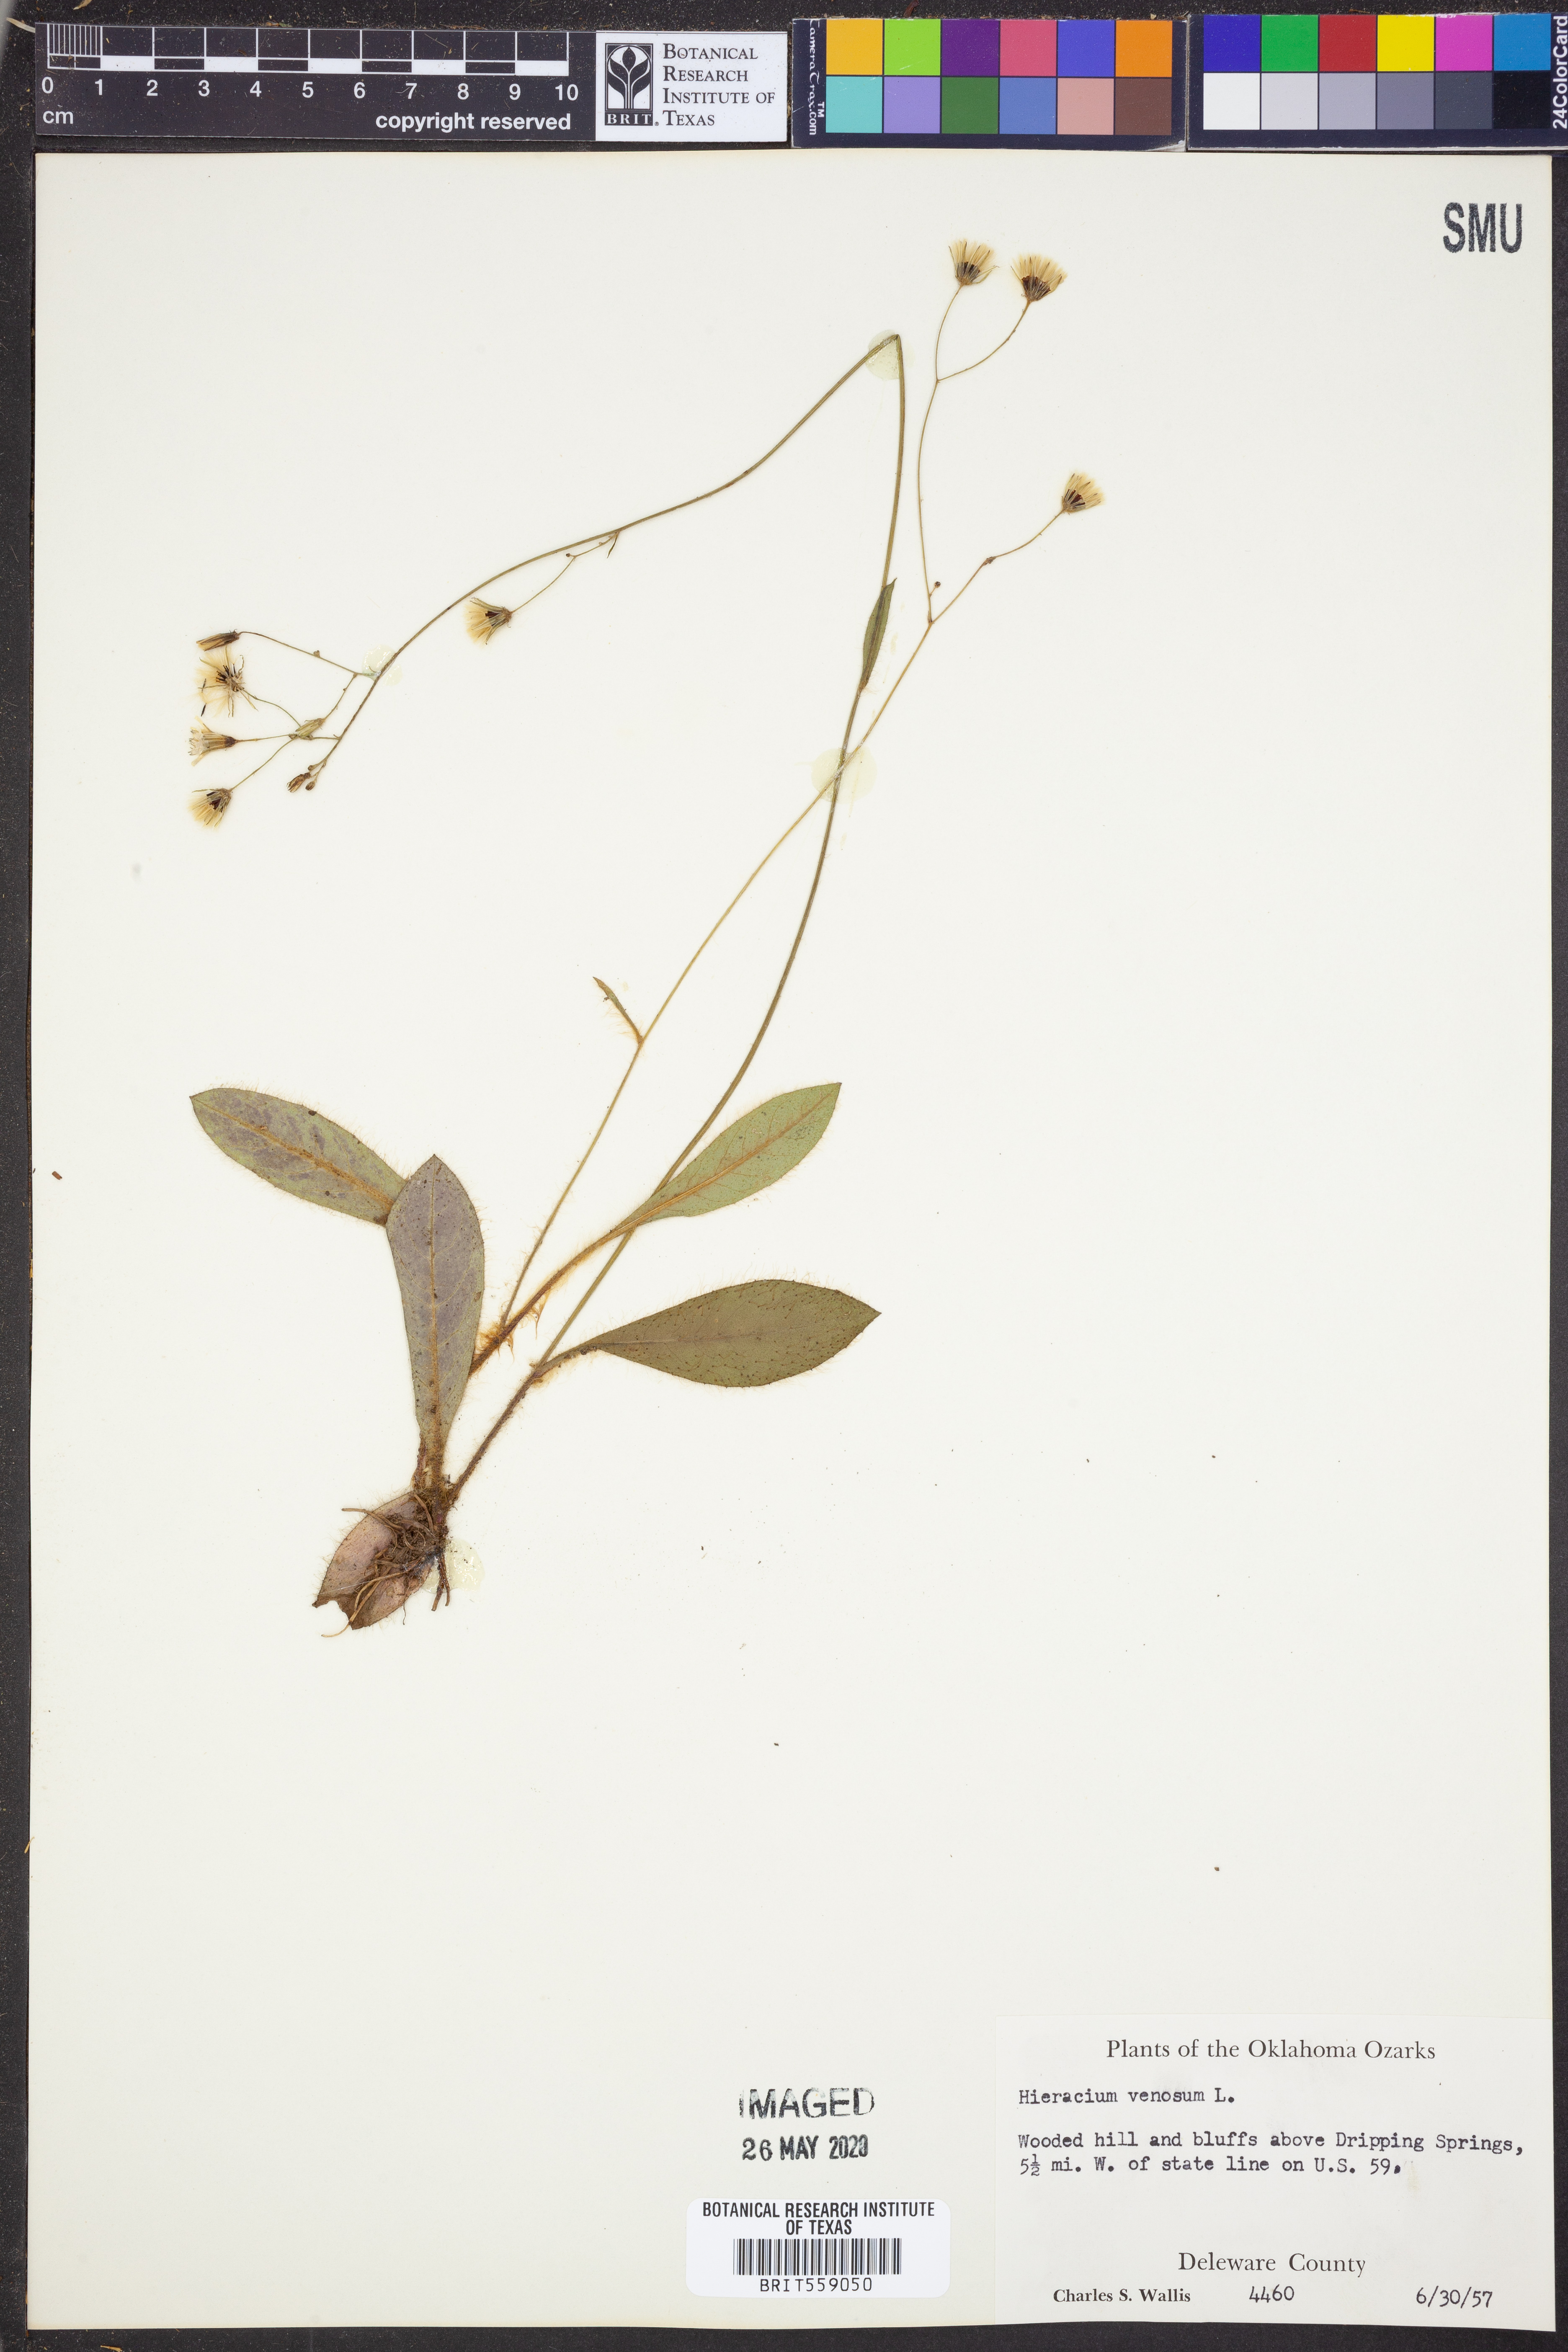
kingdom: Plantae
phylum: Tracheophyta
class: Magnoliopsida
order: Asterales
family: Asteraceae
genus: Hieracium
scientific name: Hieracium venosum
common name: Rattlesnake hawkweed
